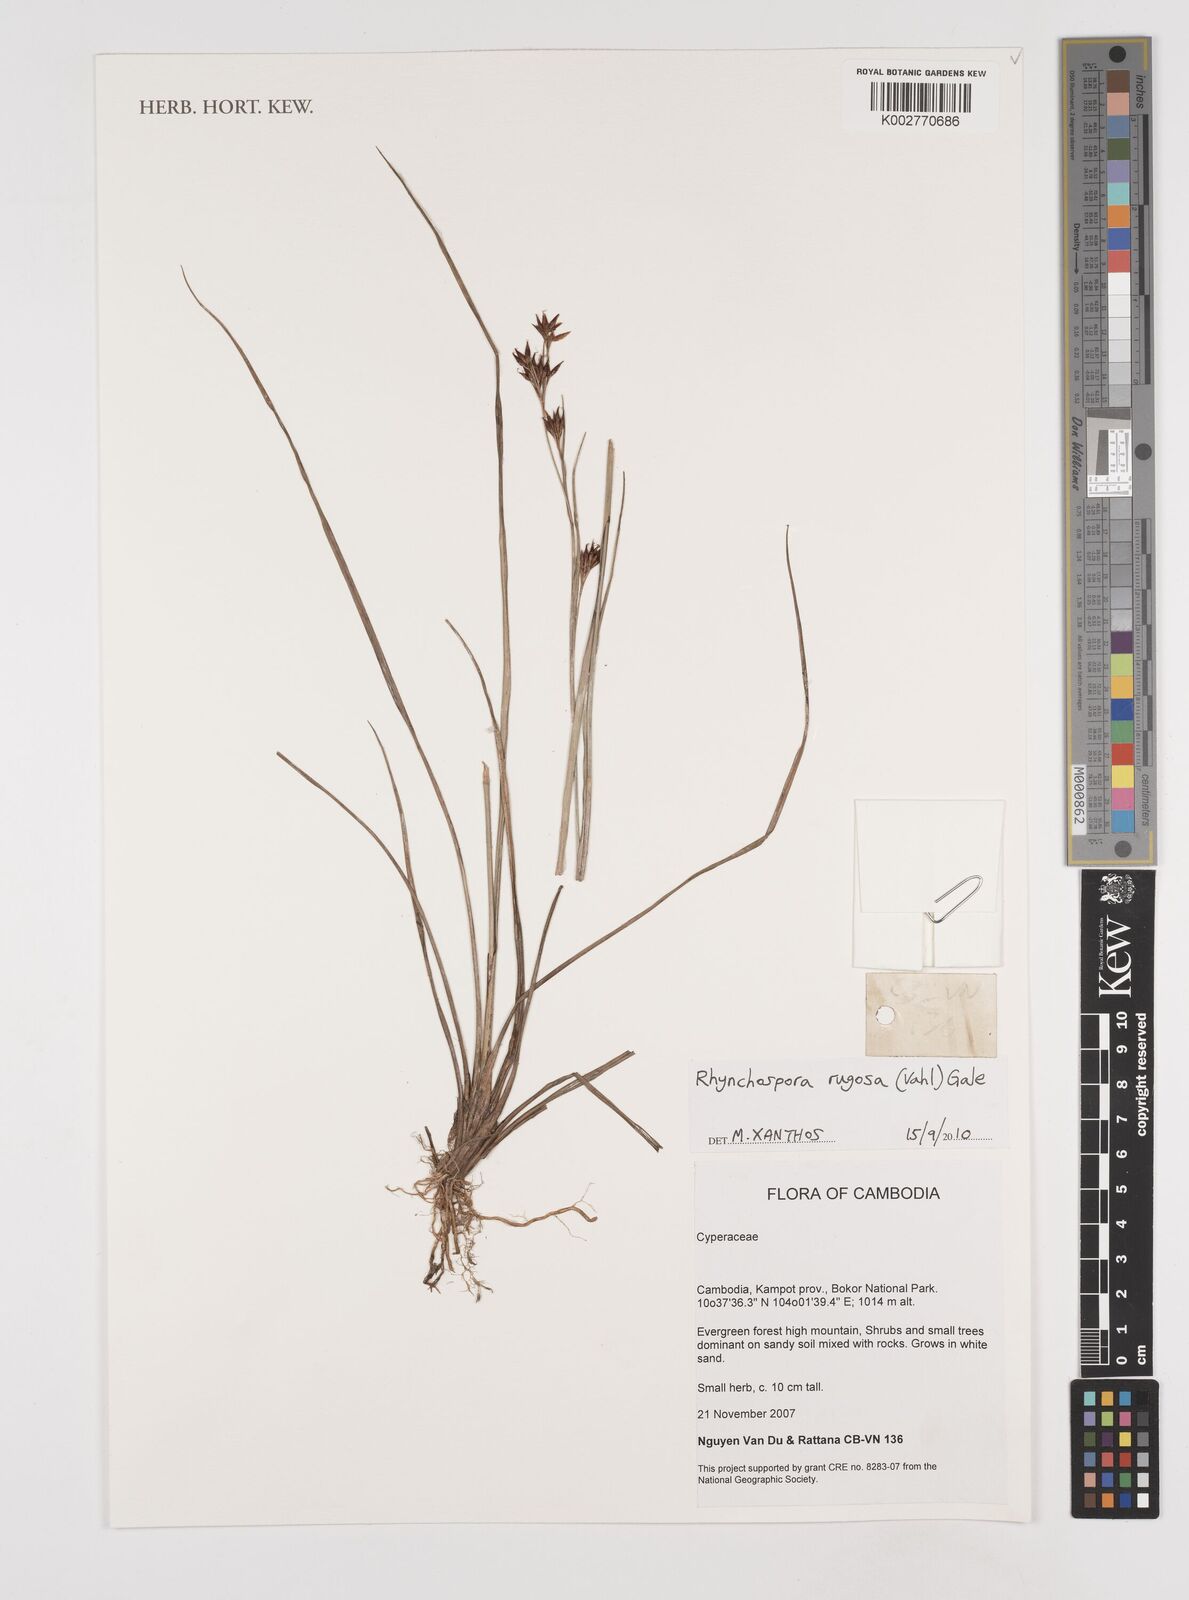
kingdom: Plantae
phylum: Tracheophyta
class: Liliopsida
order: Poales
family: Cyperaceae
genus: Rhynchospora
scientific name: Rhynchospora rugosa
